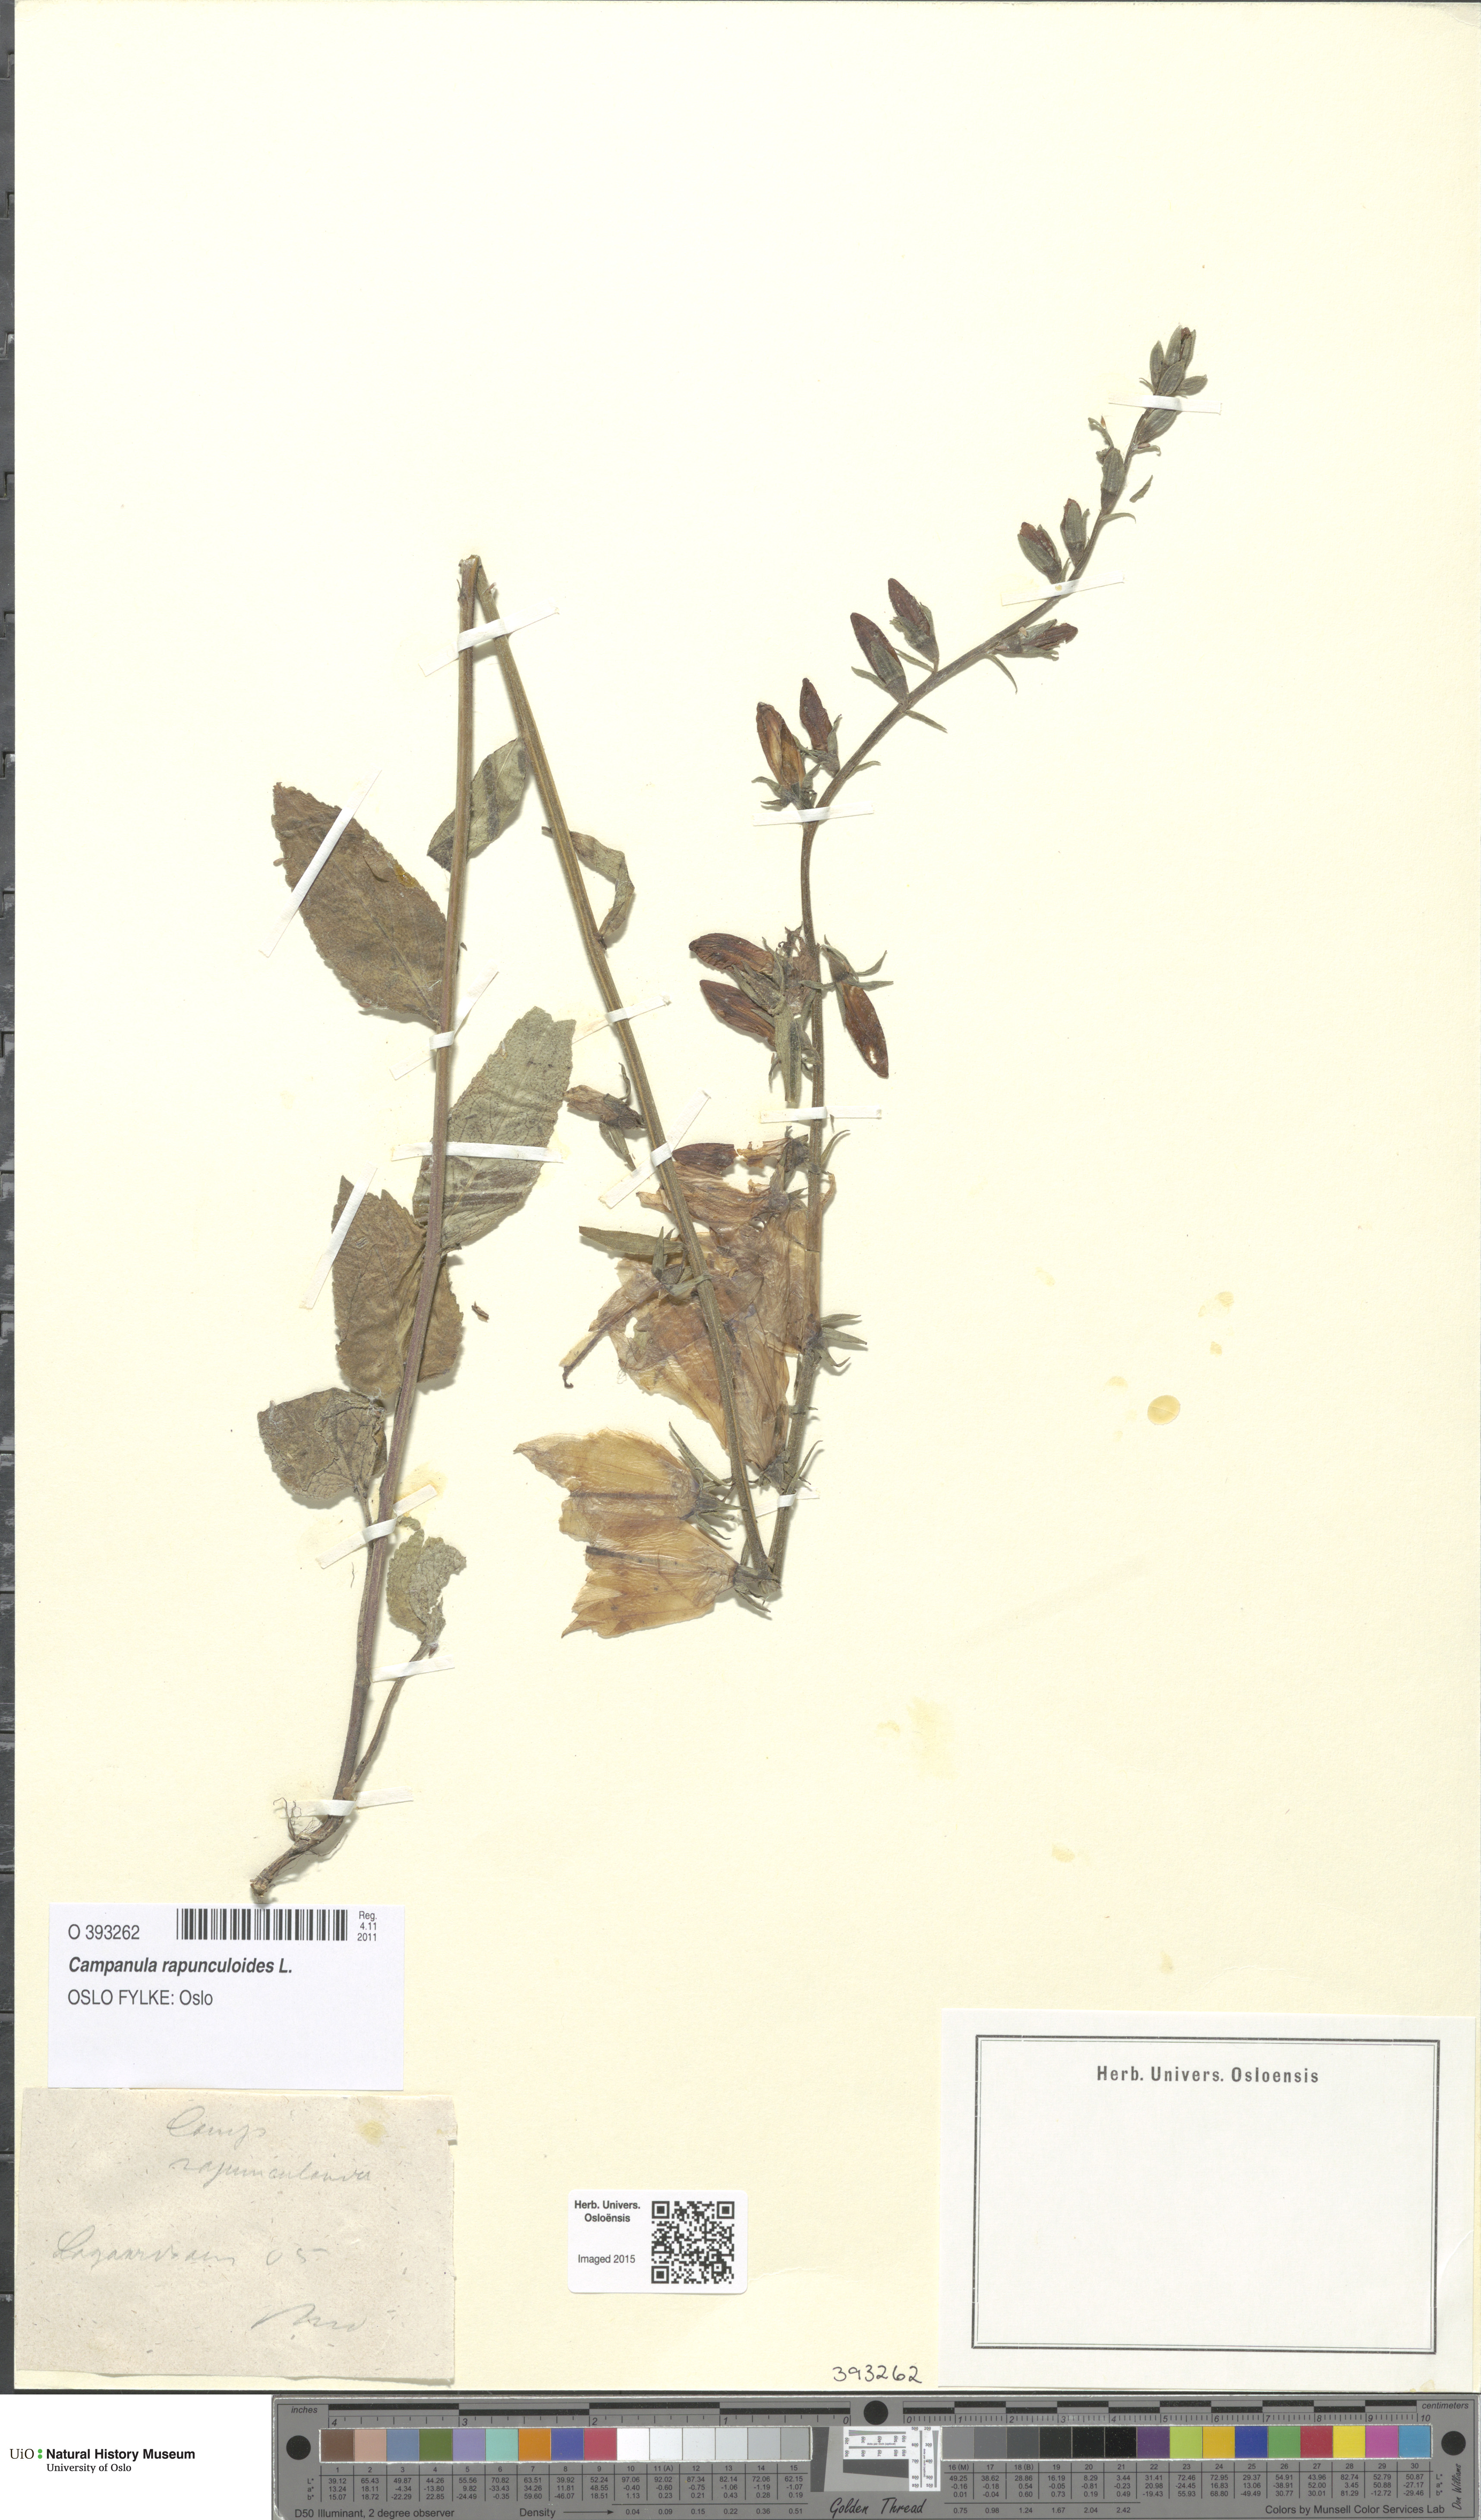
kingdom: Plantae
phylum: Tracheophyta
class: Magnoliopsida
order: Asterales
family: Campanulaceae
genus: Campanula
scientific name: Campanula rapunculoides
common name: Creeping bellflower
